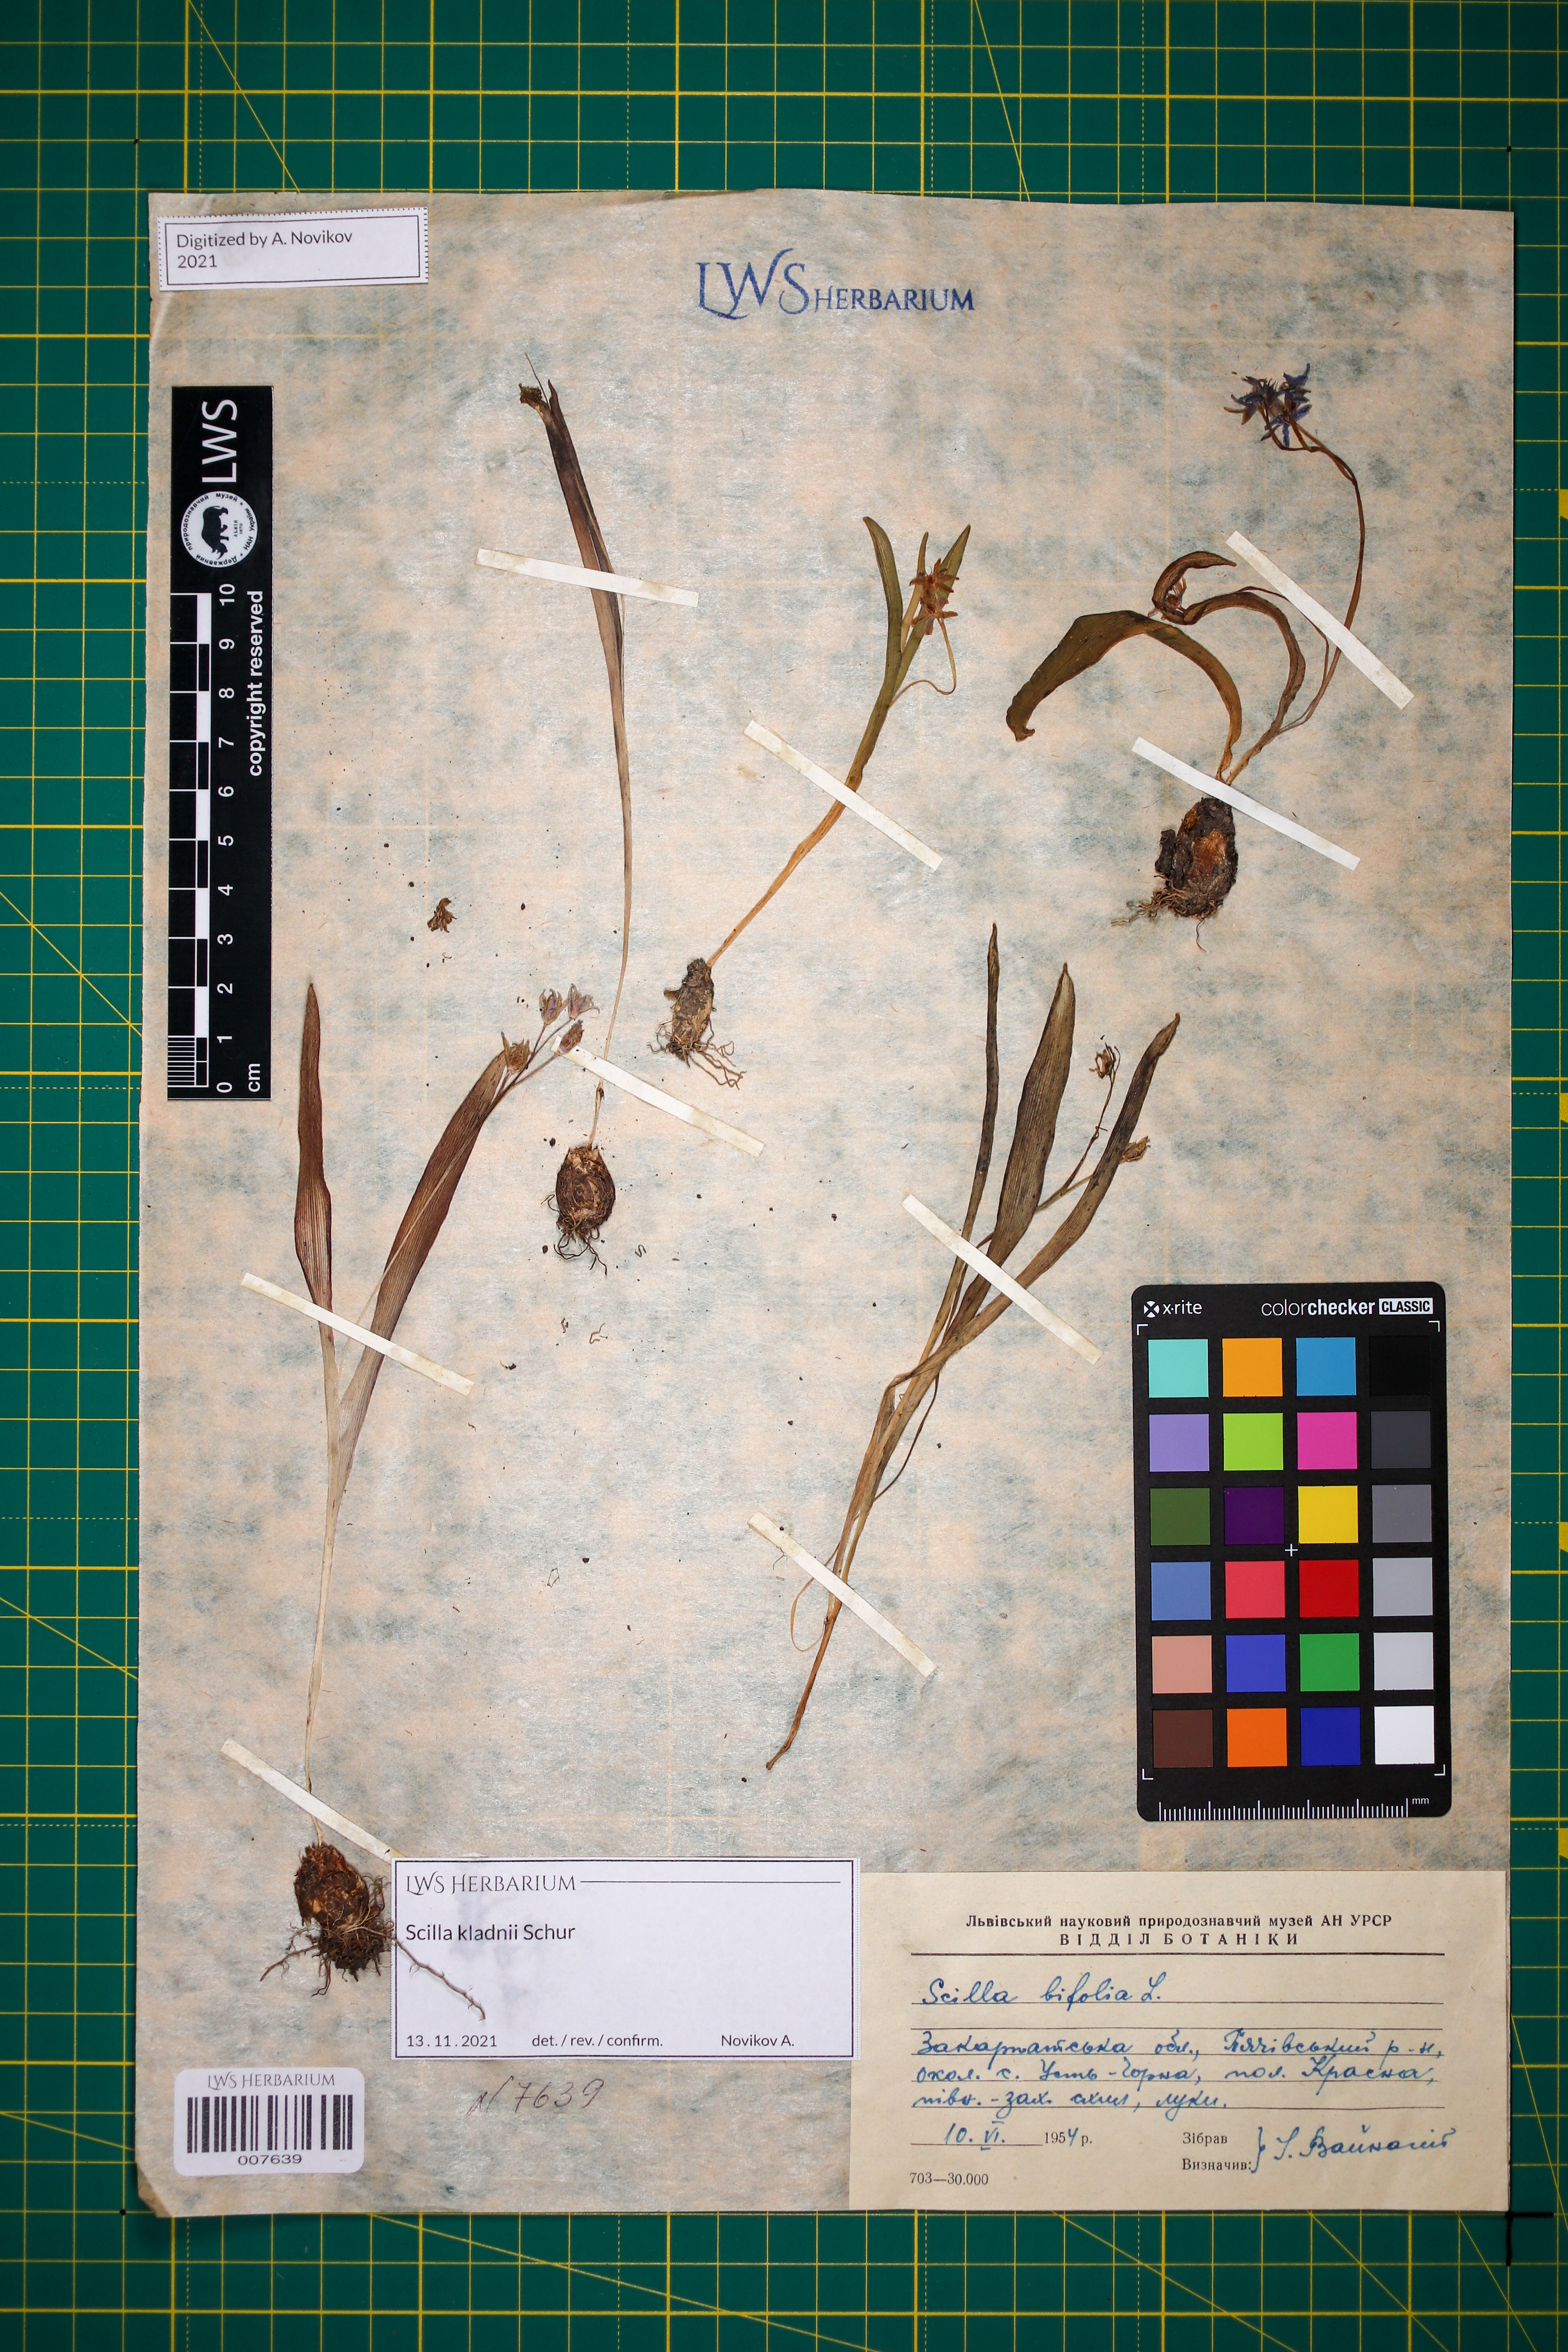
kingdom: Plantae
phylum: Tracheophyta
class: Liliopsida
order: Asparagales
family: Asparagaceae
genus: Scilla
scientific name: Scilla kladnii
